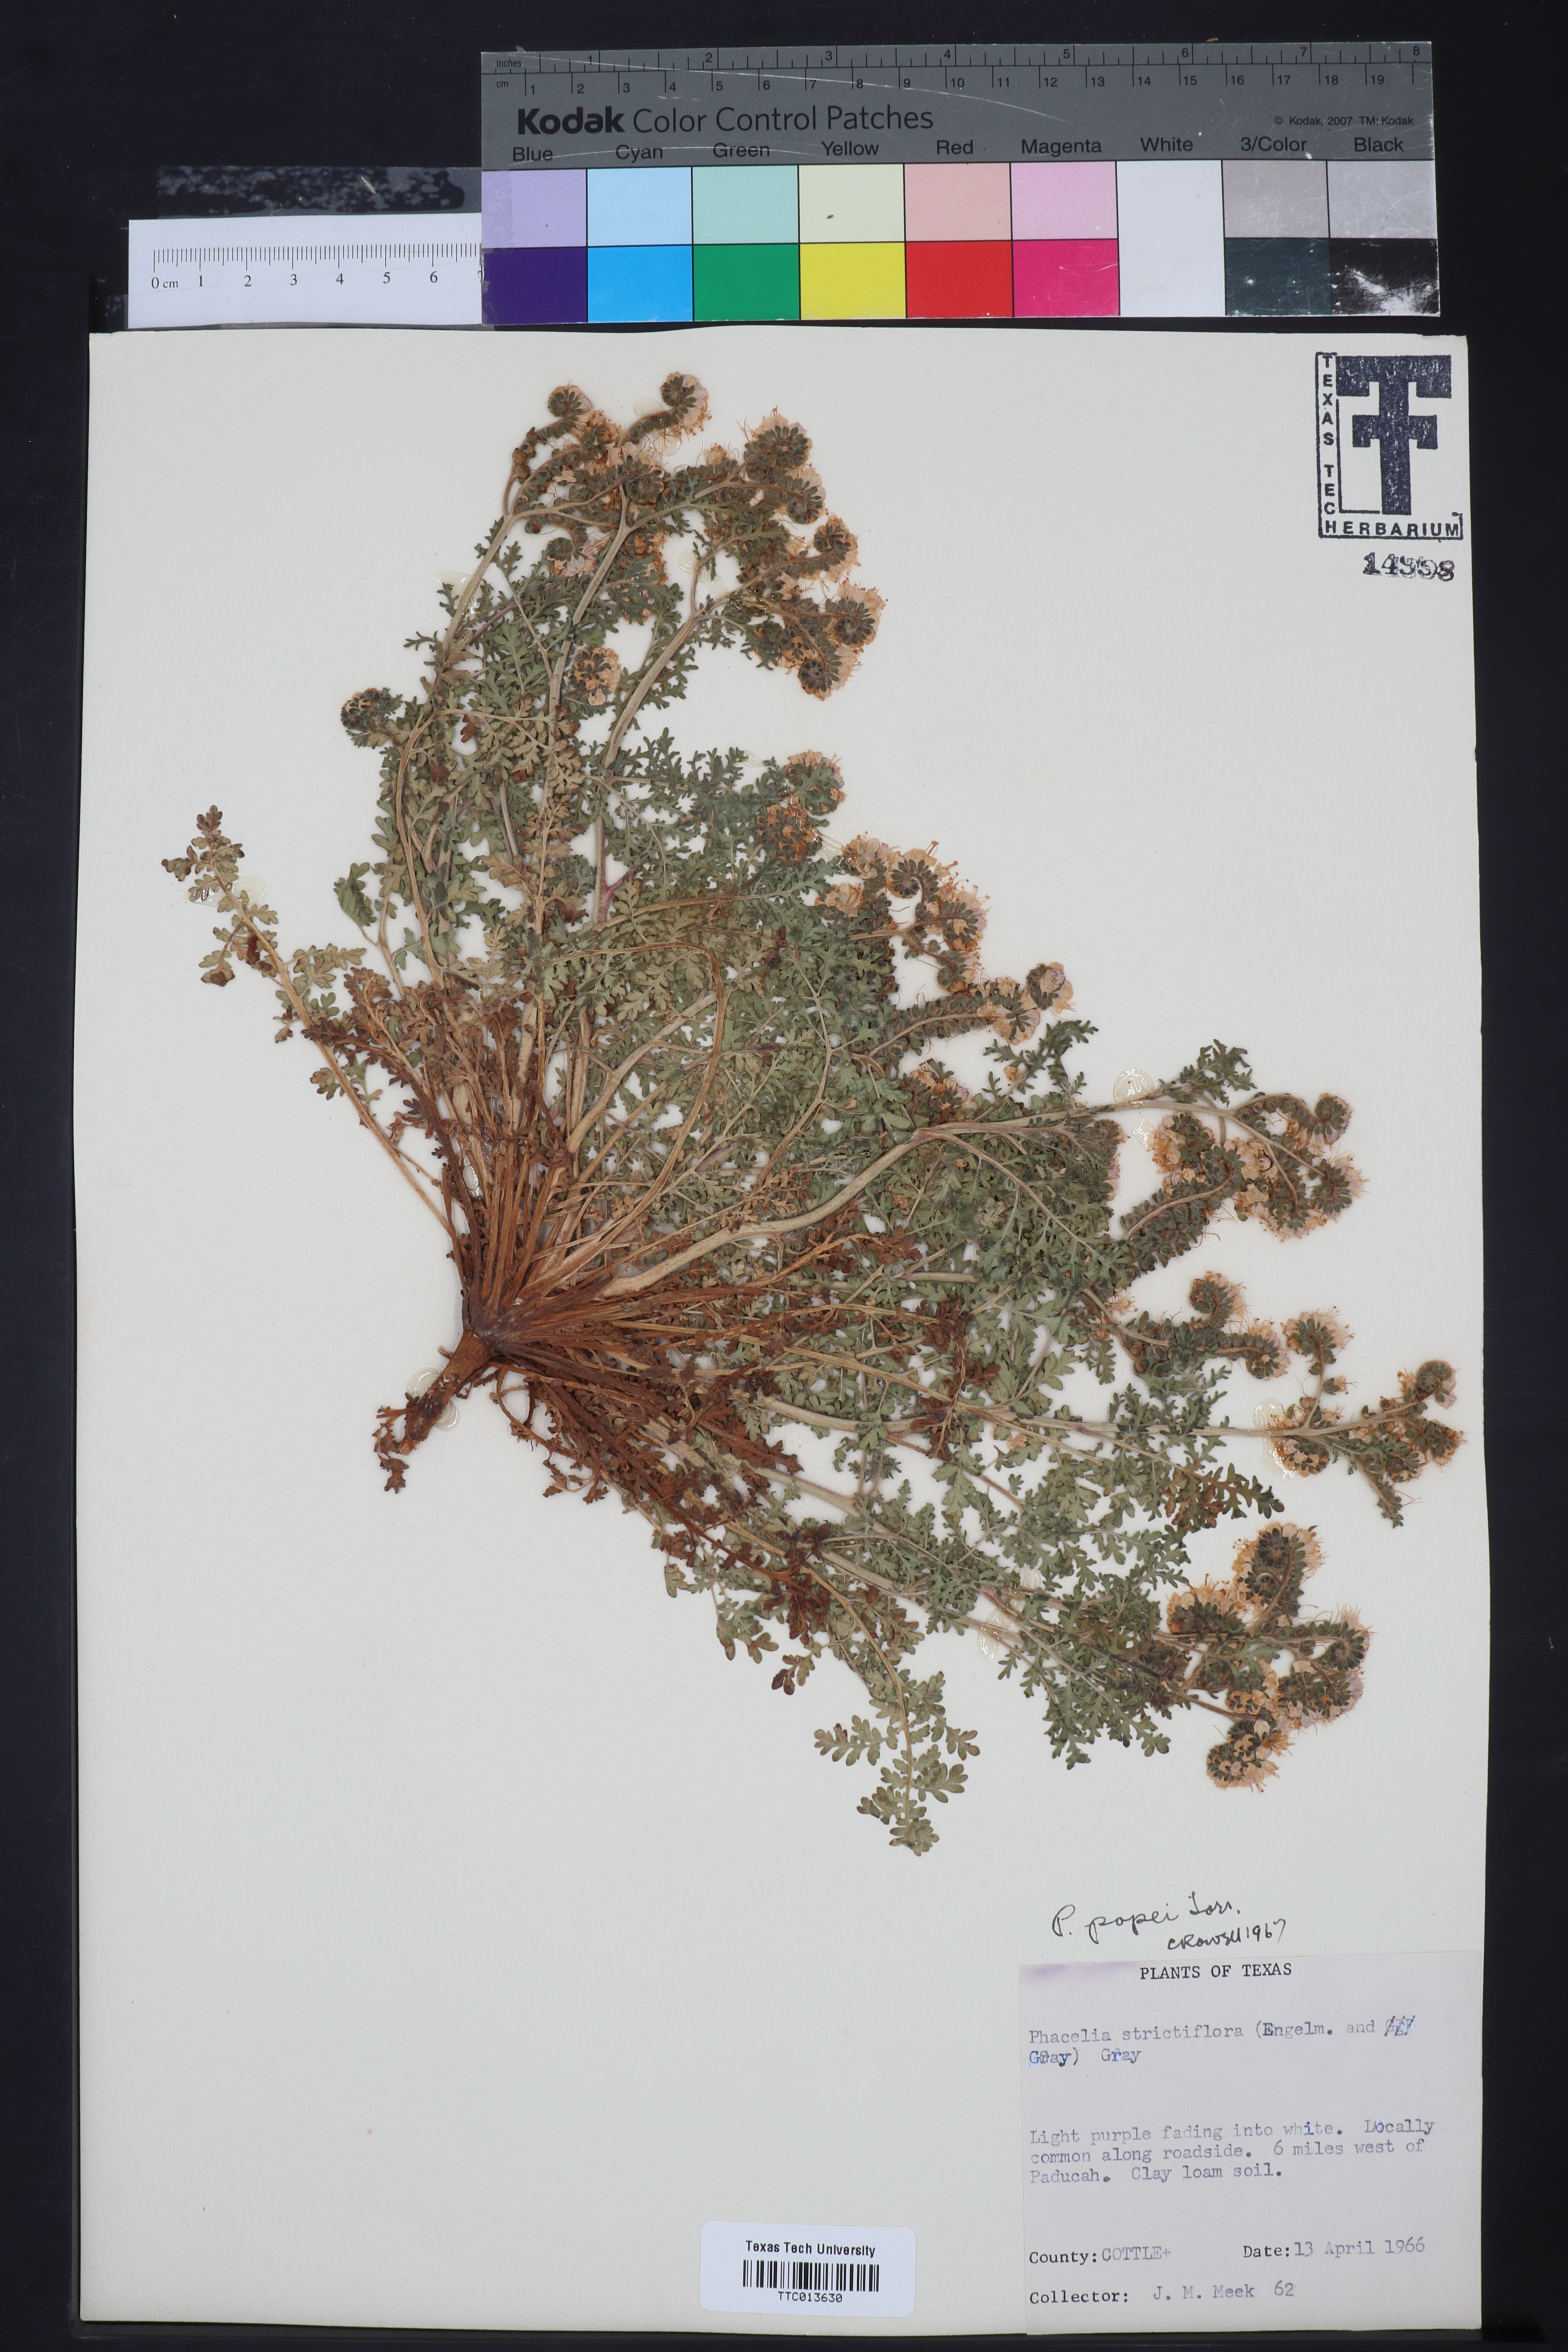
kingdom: Plantae
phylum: Tracheophyta
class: Magnoliopsida
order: Boraginales
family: Hydrophyllaceae
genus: Phacelia
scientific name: Phacelia popei
